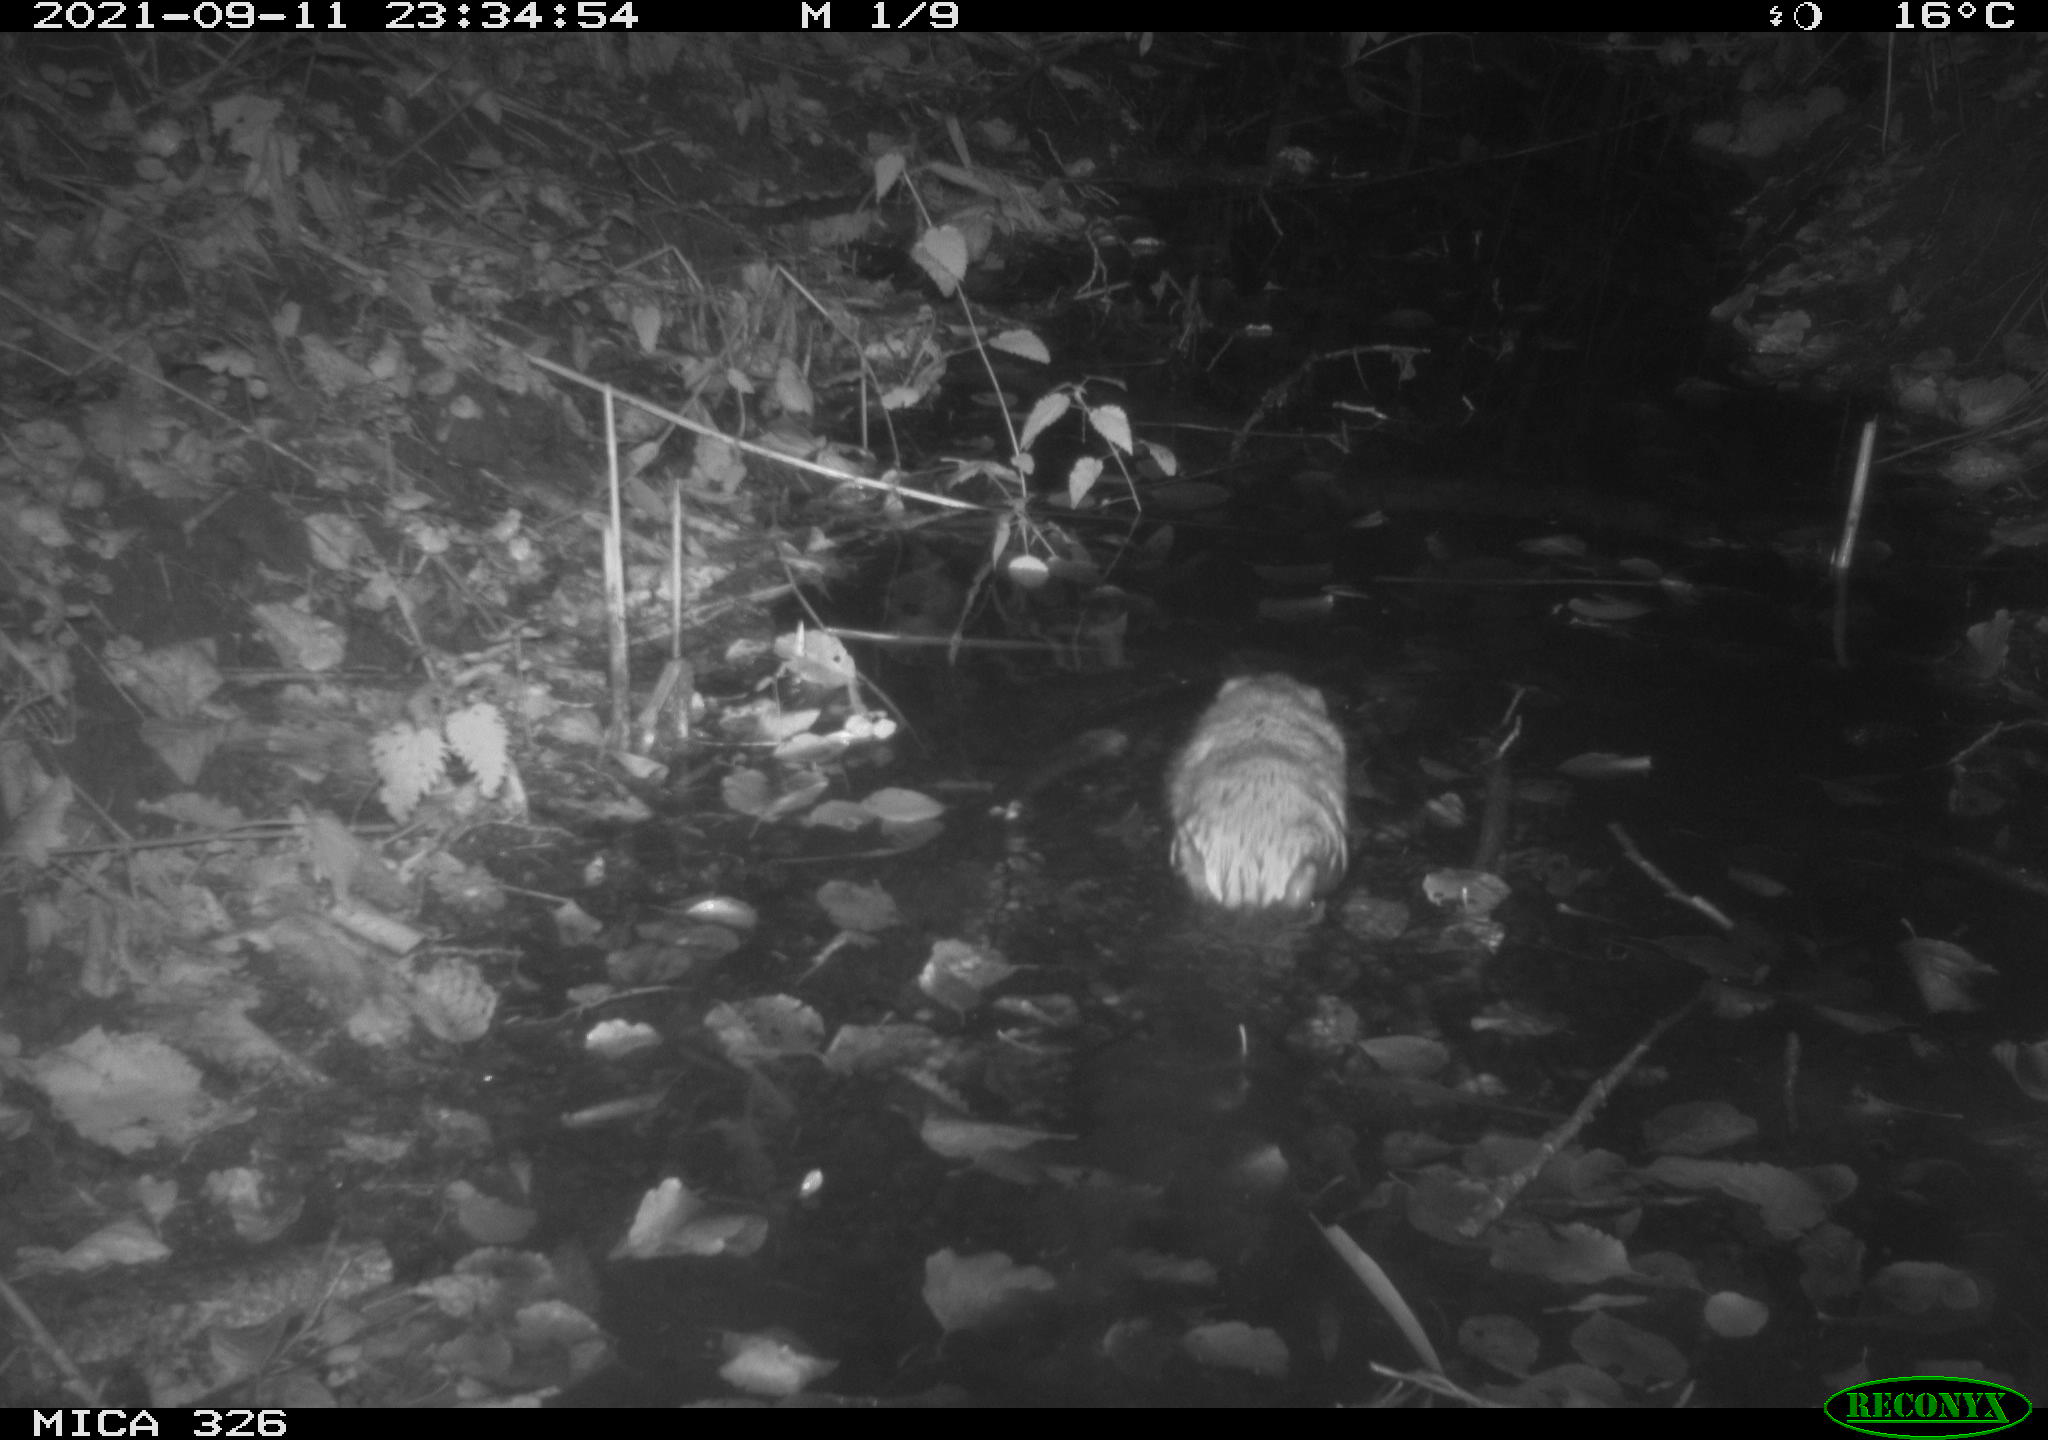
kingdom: Animalia
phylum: Chordata
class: Mammalia
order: Rodentia
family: Cricetidae
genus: Ondatra
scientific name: Ondatra zibethicus
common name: Muskrat
